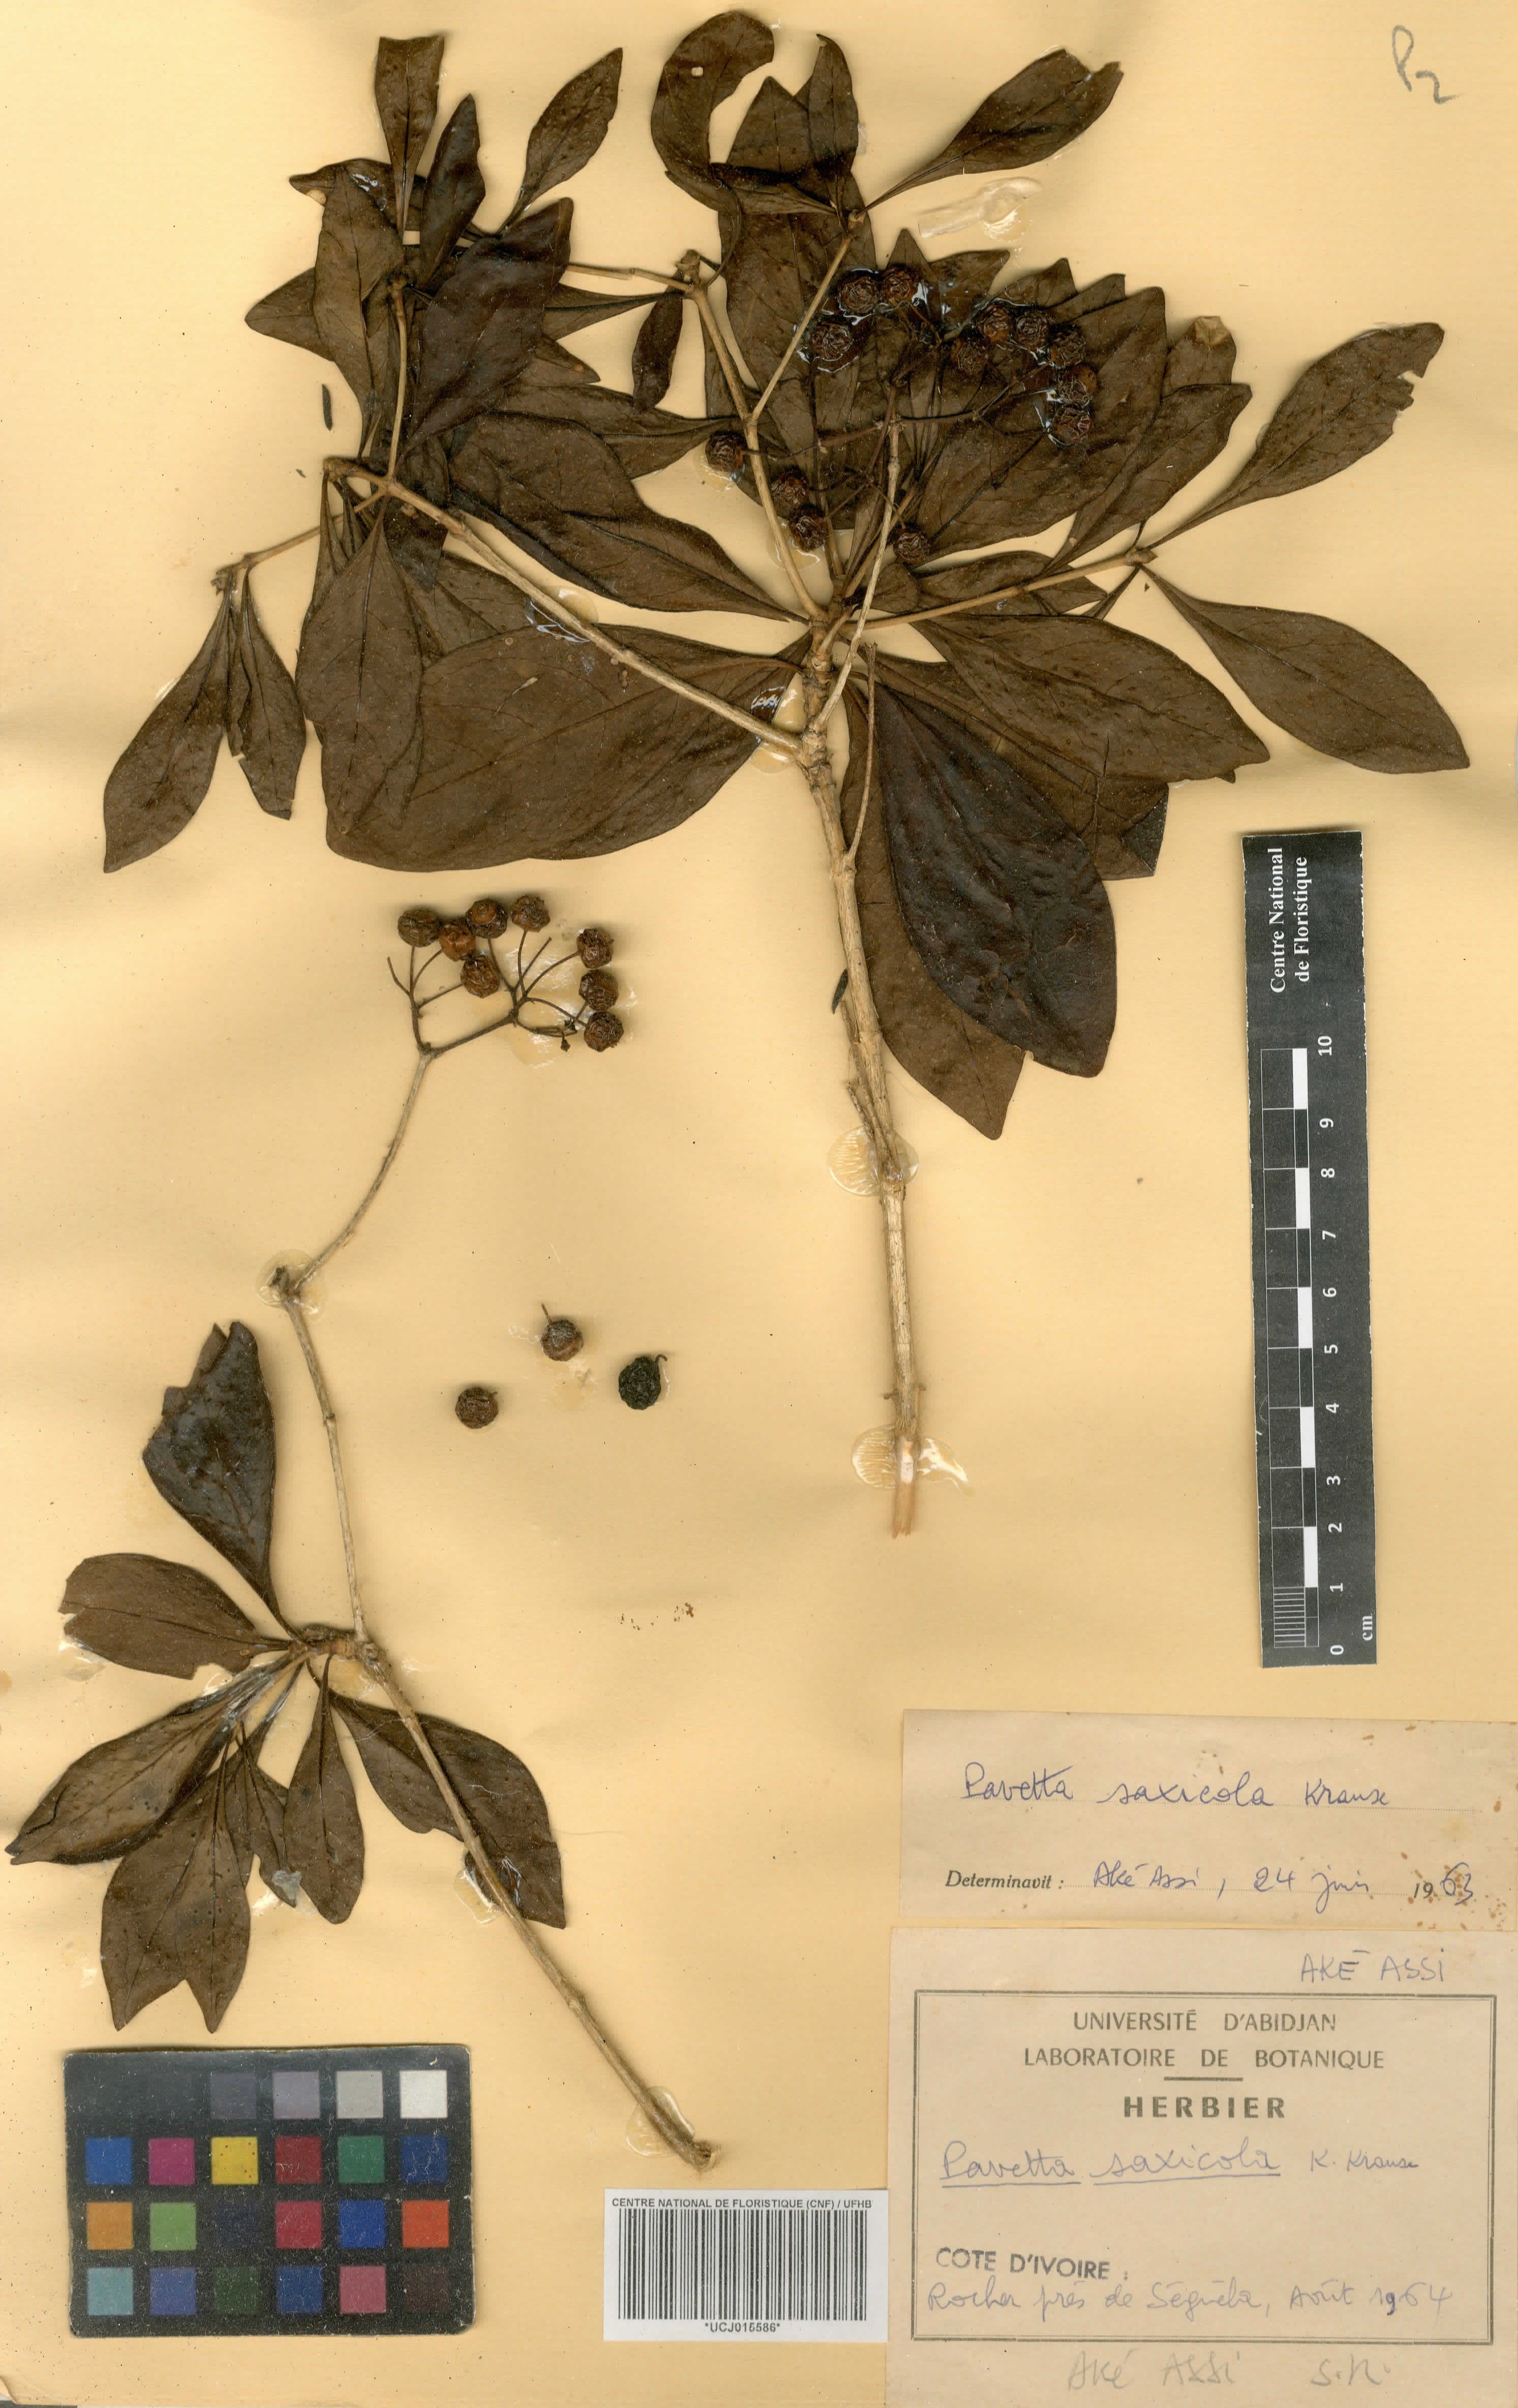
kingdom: Plantae
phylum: Tracheophyta
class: Magnoliopsida
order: Gentianales
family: Rubiaceae
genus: Pavetta
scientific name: Pavetta gardeniifolia
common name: Common brides-bush
